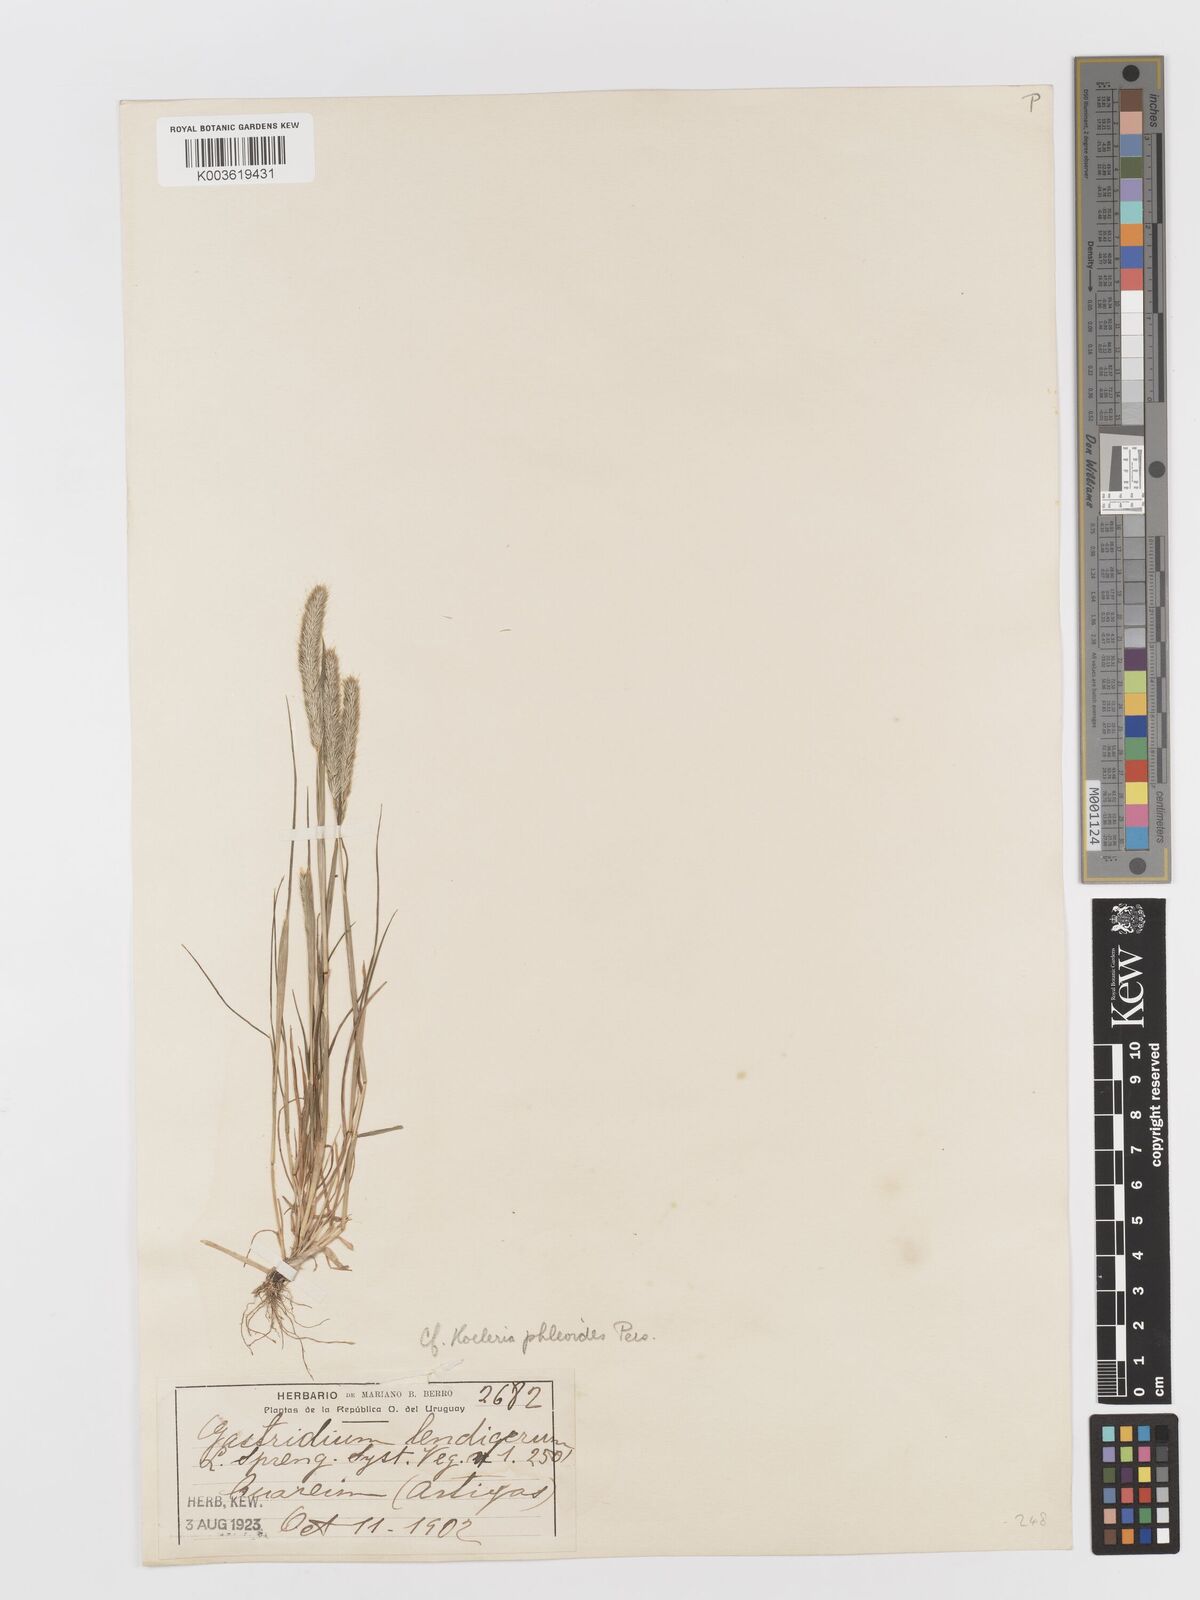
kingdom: Plantae
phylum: Tracheophyta
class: Liliopsida
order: Poales
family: Poaceae
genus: Rostraria
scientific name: Rostraria cristata
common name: Mediterranean hair-grass
